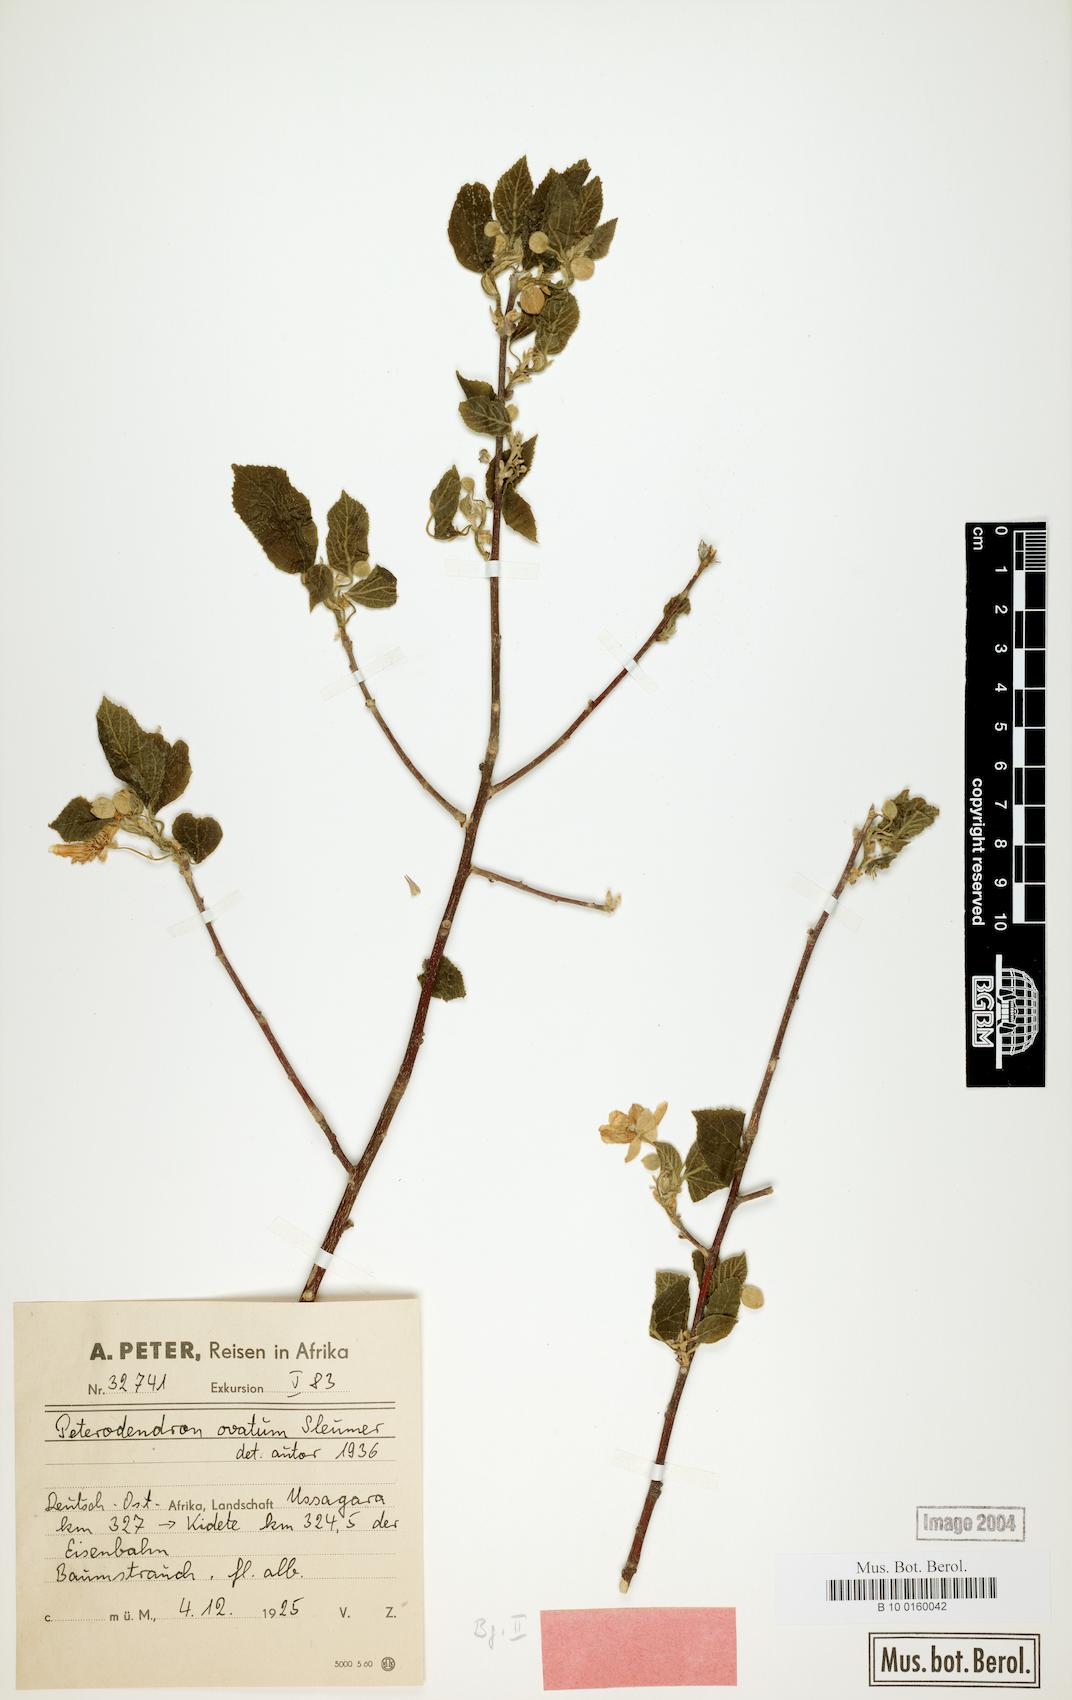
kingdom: Plantae
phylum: Tracheophyta
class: Magnoliopsida
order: Malpighiales
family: Achariaceae
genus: Peterodendron
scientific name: Peterodendron ovatum
